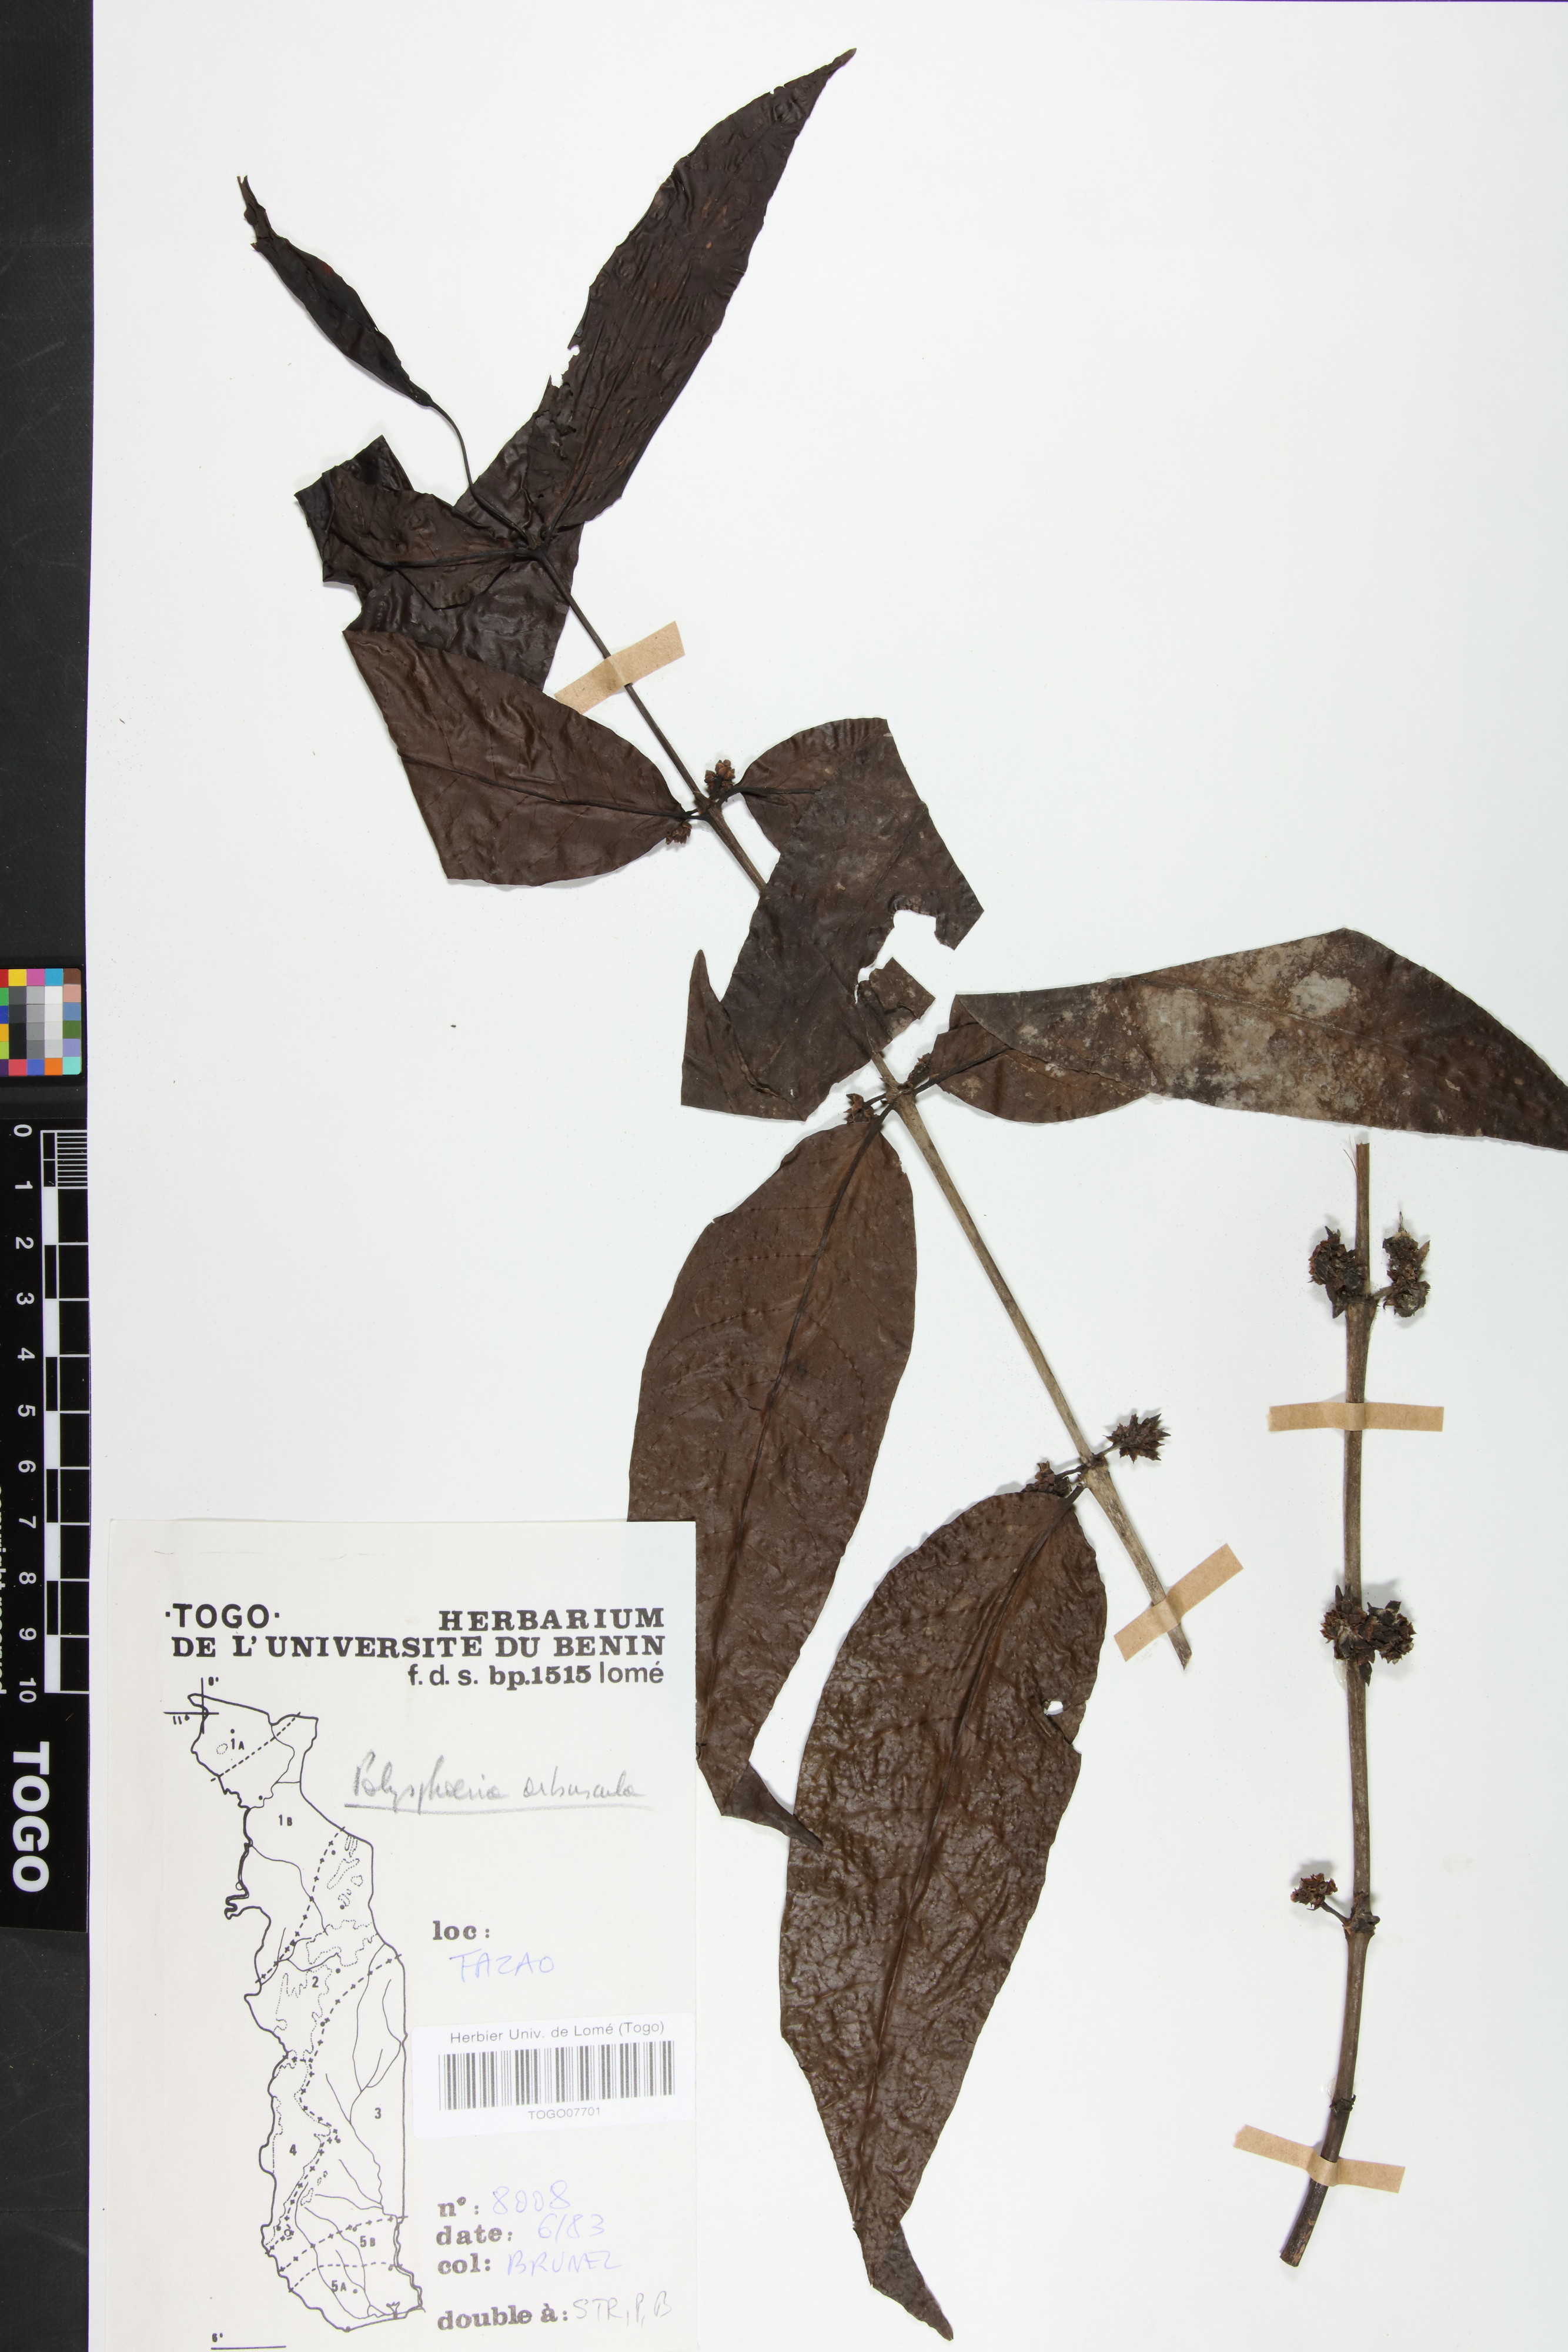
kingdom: Plantae
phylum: Tracheophyta
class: Magnoliopsida
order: Gentianales
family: Rubiaceae
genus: Polysphaeria
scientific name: Polysphaeria arbuscula
